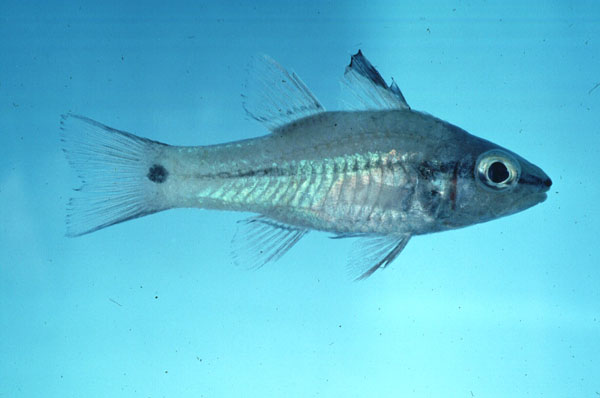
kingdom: Animalia
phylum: Chordata
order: Perciformes
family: Apogonidae
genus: Pristiapogon
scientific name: Pristiapogon fraenatus
